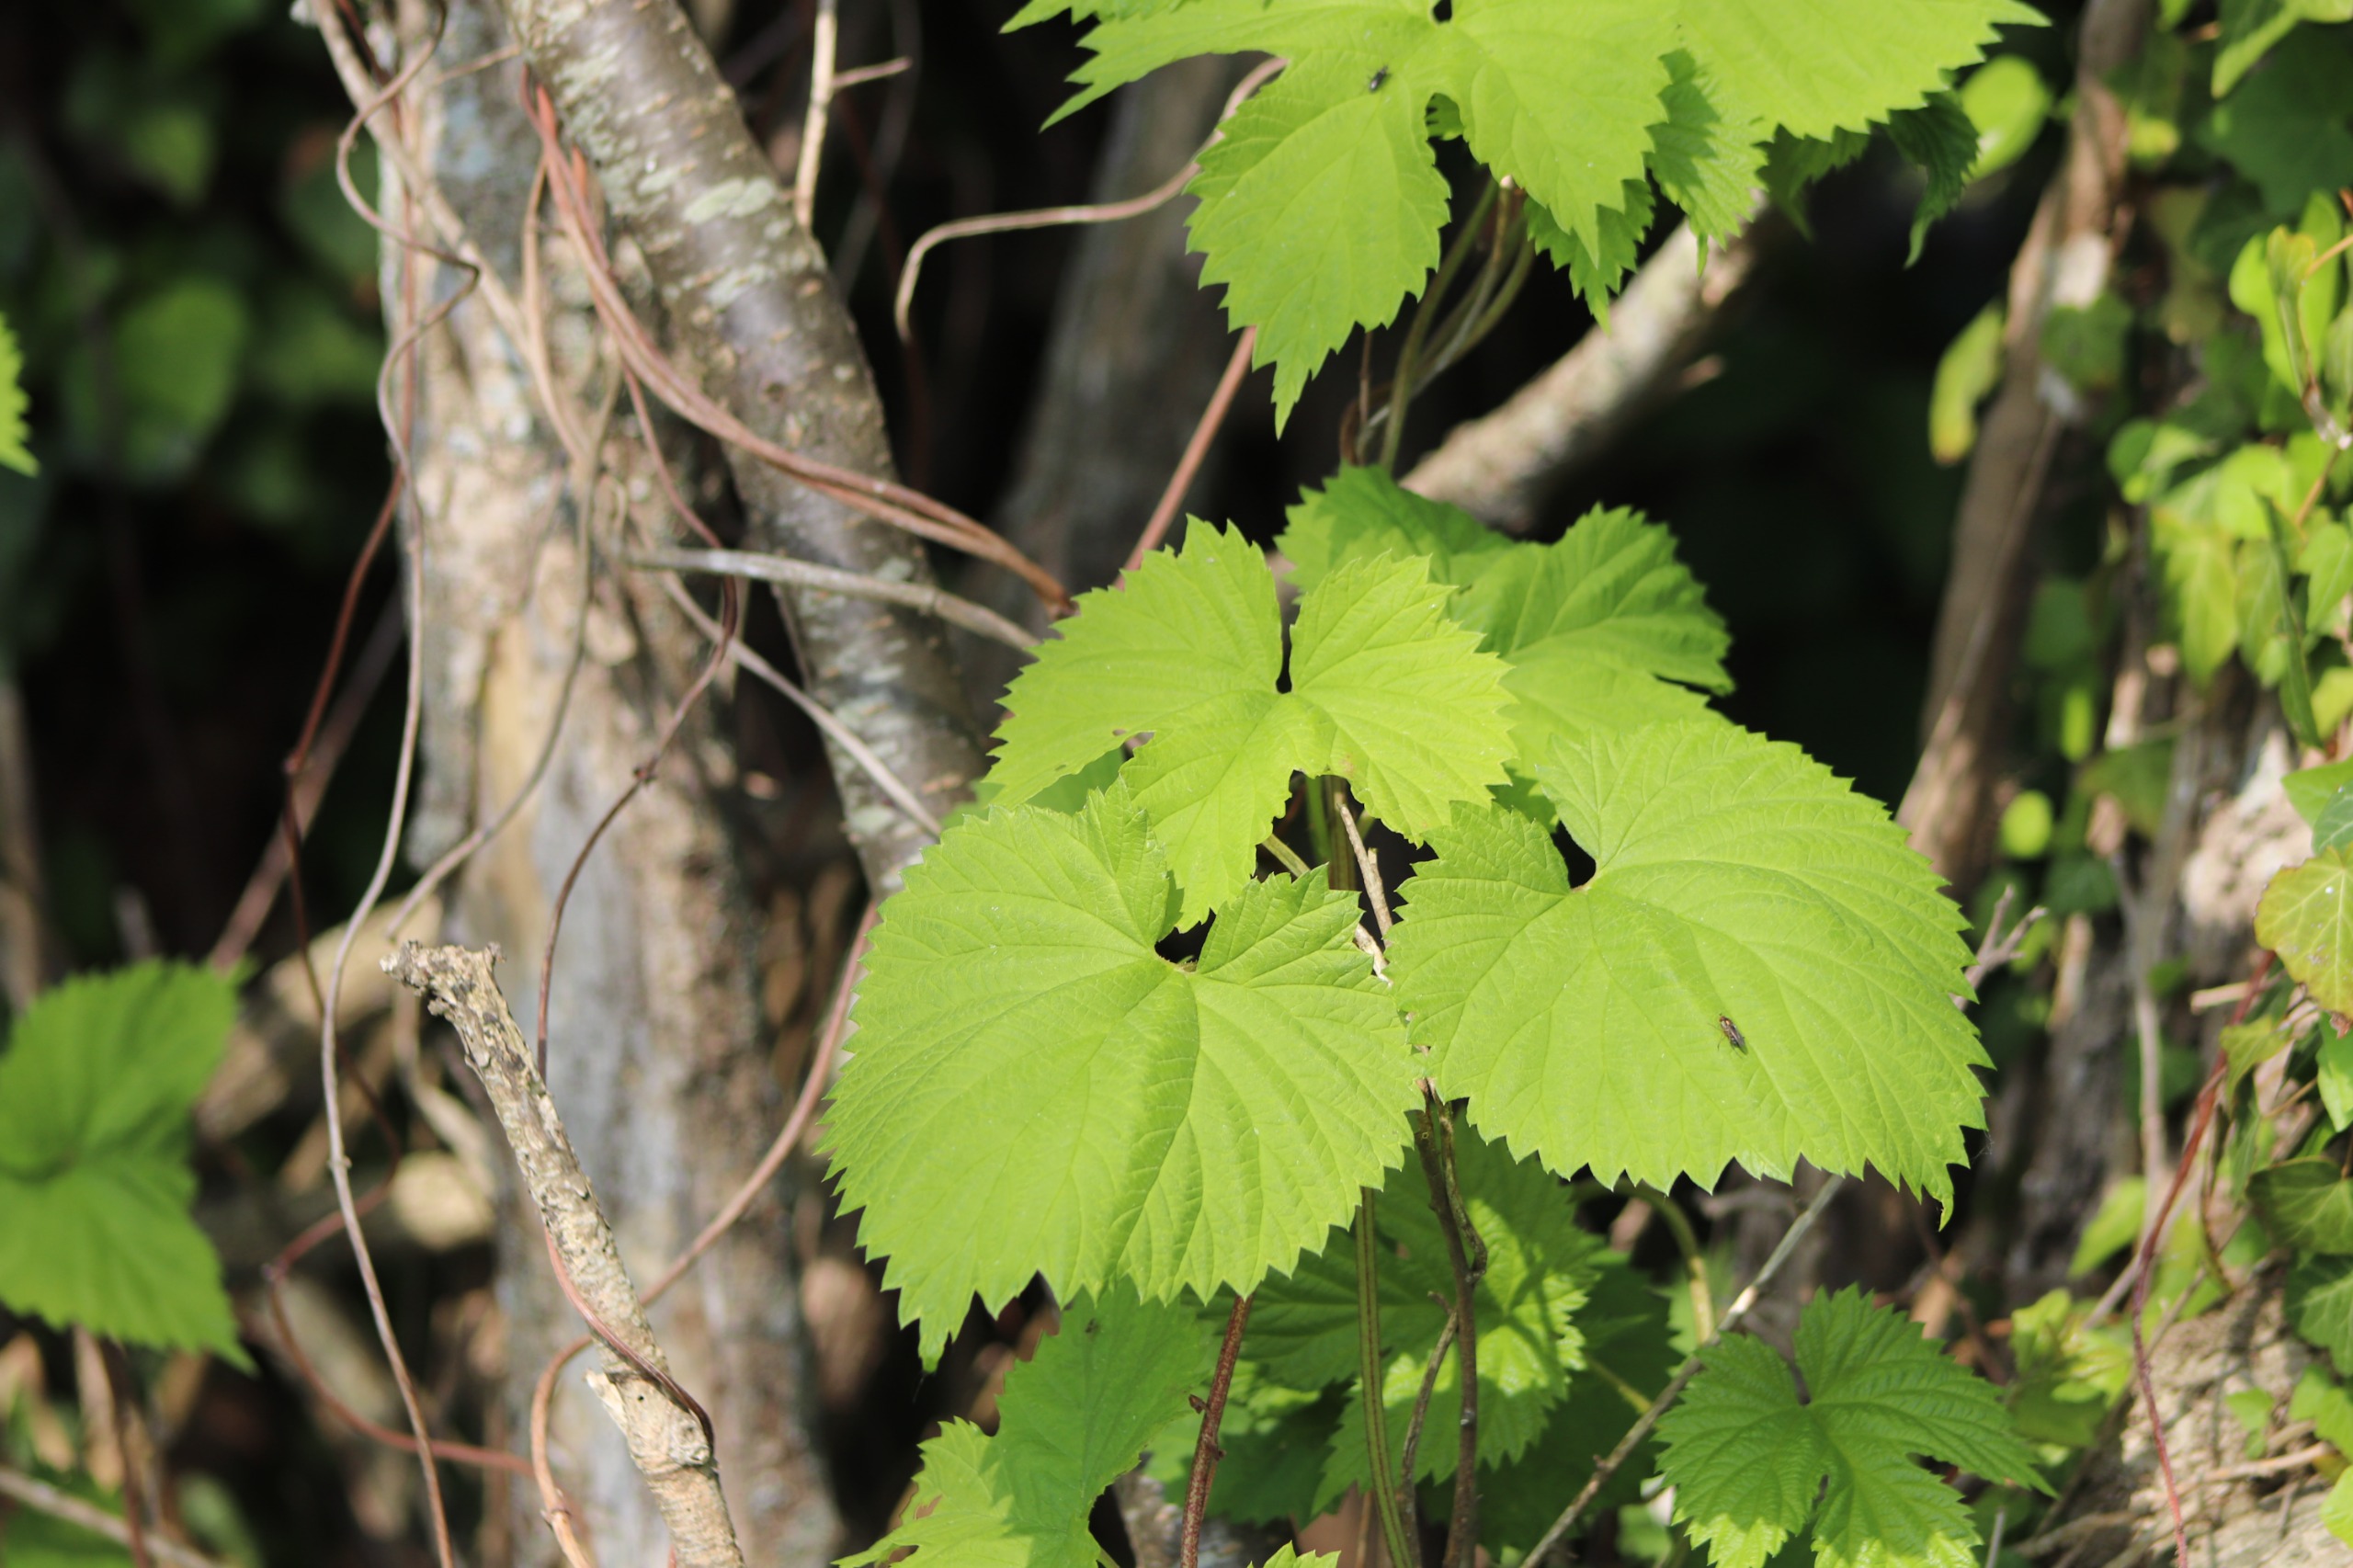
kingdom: Plantae
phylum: Tracheophyta
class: Magnoliopsida
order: Rosales
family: Cannabaceae
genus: Humulus
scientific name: Humulus lupulus
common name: Humle
